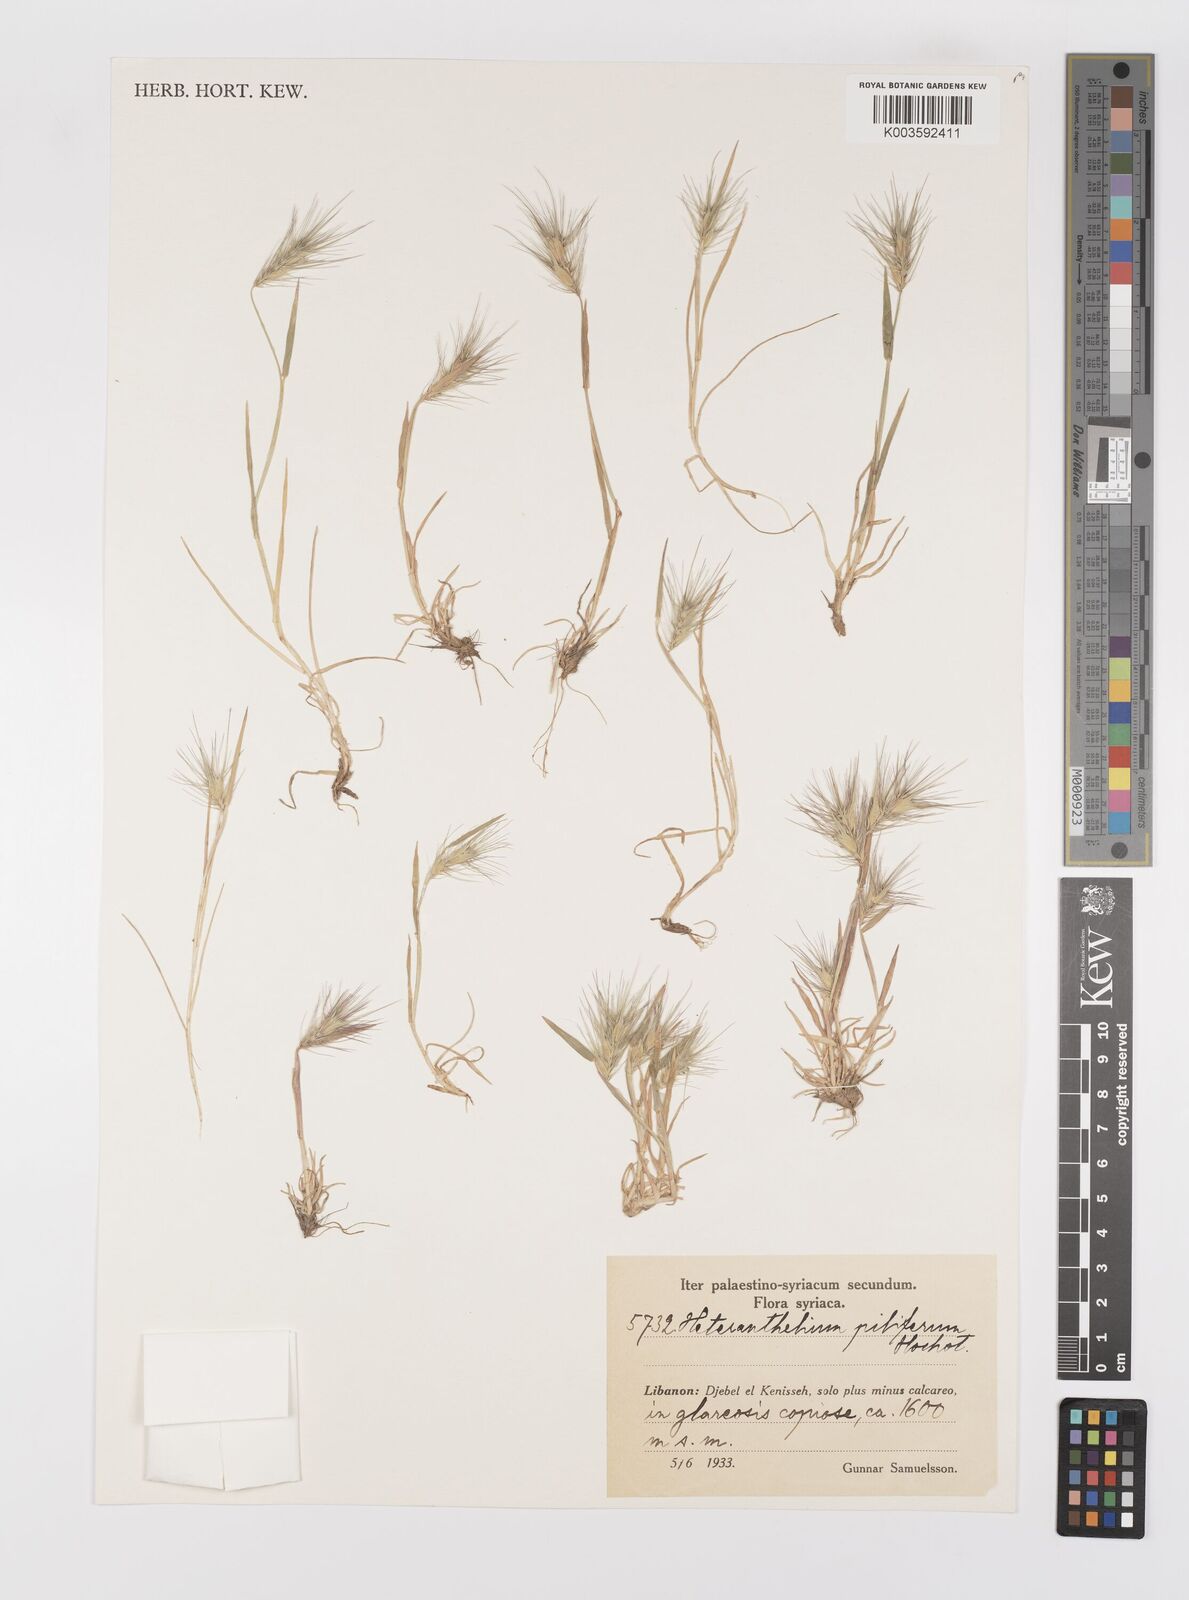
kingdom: Plantae
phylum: Tracheophyta
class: Liliopsida
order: Poales
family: Poaceae
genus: Heteranthelium
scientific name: Heteranthelium piliferum
